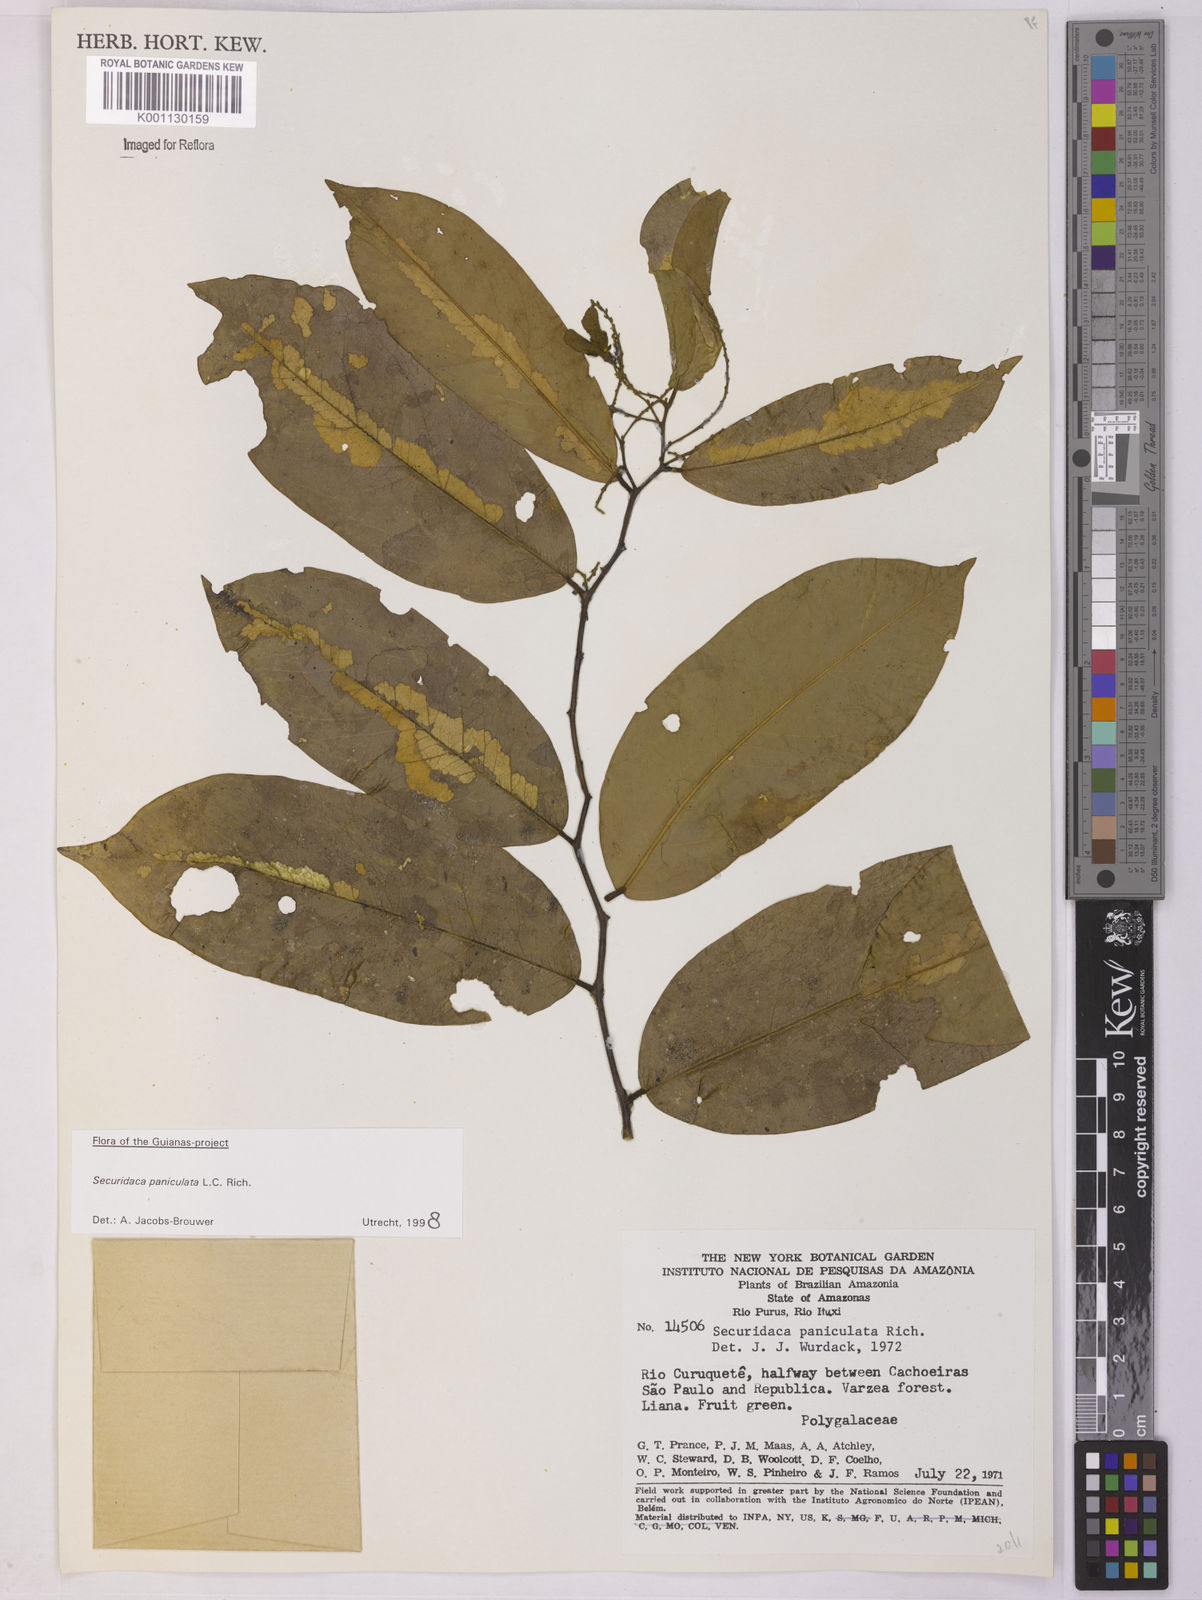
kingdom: Plantae
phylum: Tracheophyta
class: Magnoliopsida
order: Fabales
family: Polygalaceae
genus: Securidaca
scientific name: Securidaca paniculata
